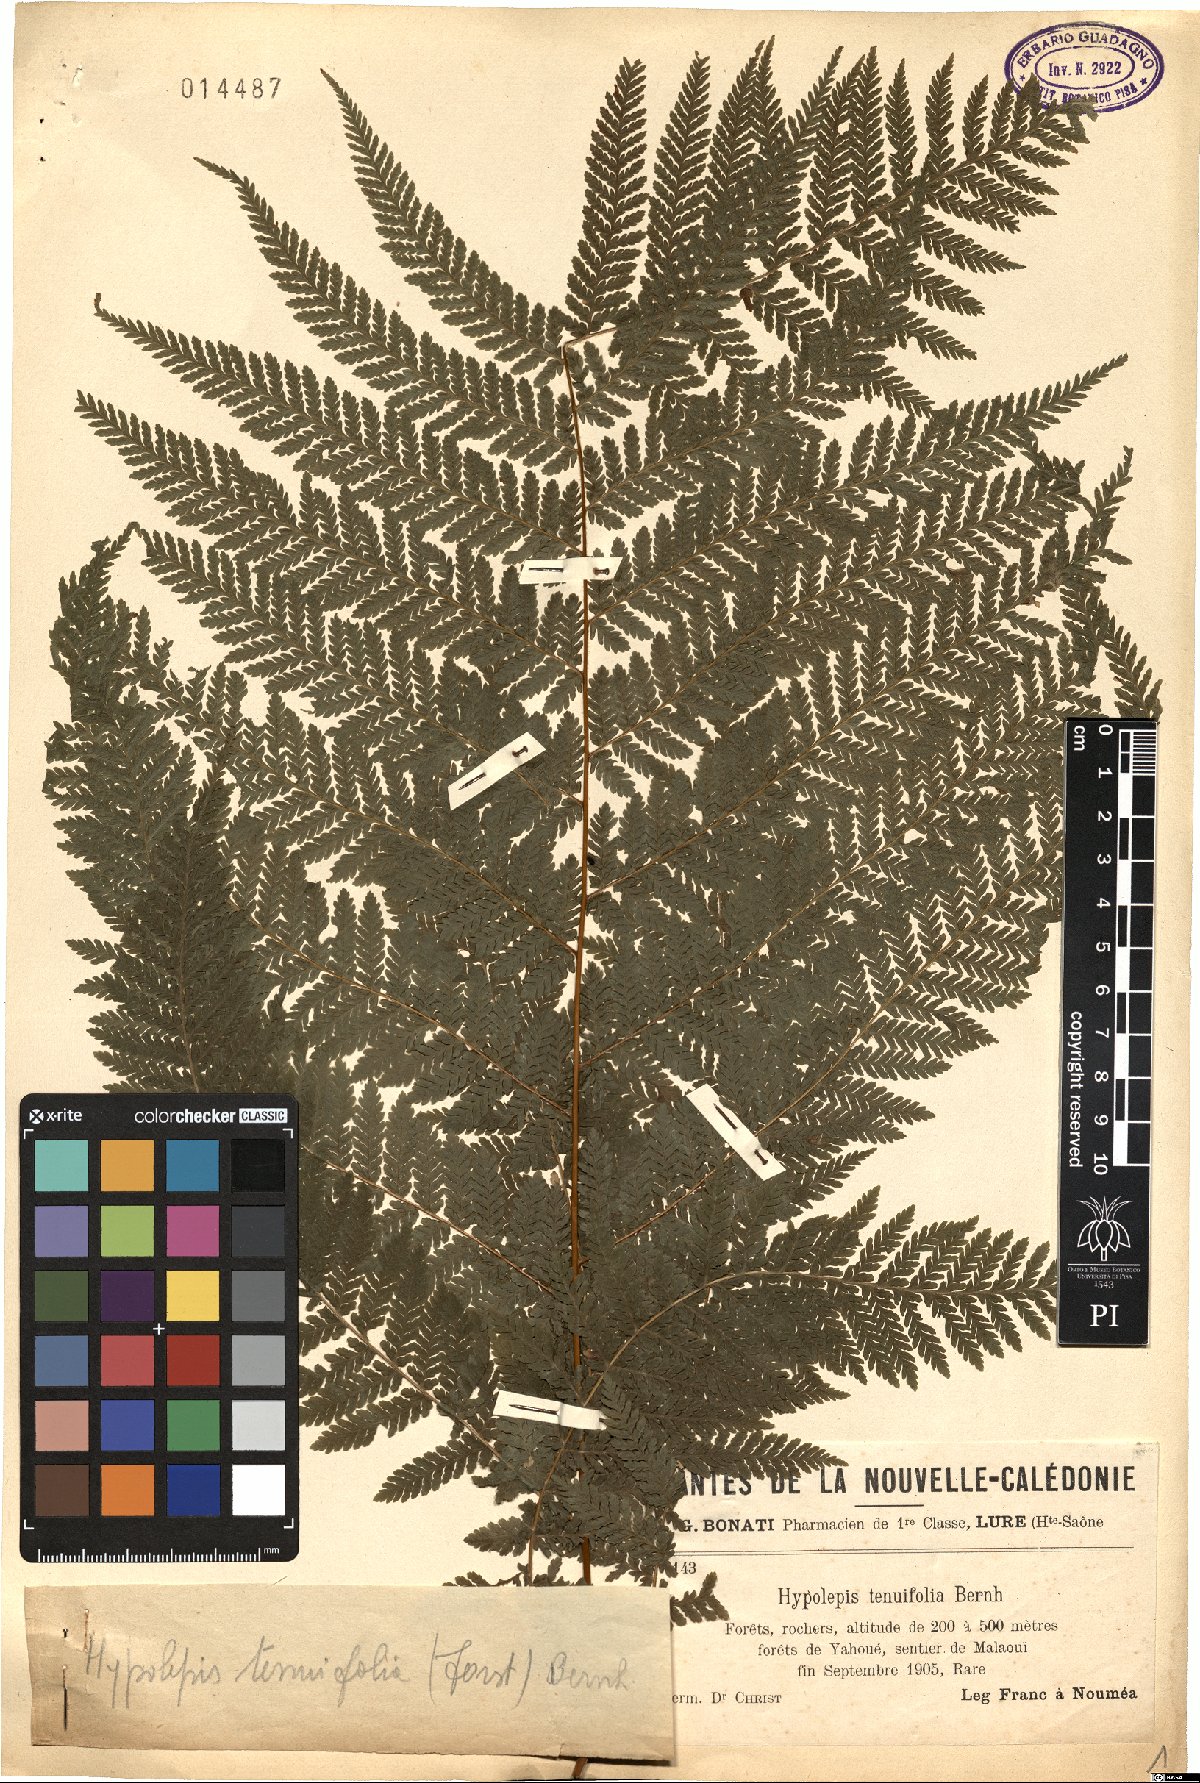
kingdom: Plantae
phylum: Tracheophyta
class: Polypodiopsida
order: Polypodiales
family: Dennstaedtiaceae
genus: Hypolepis
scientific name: Hypolepis tenuifolia
